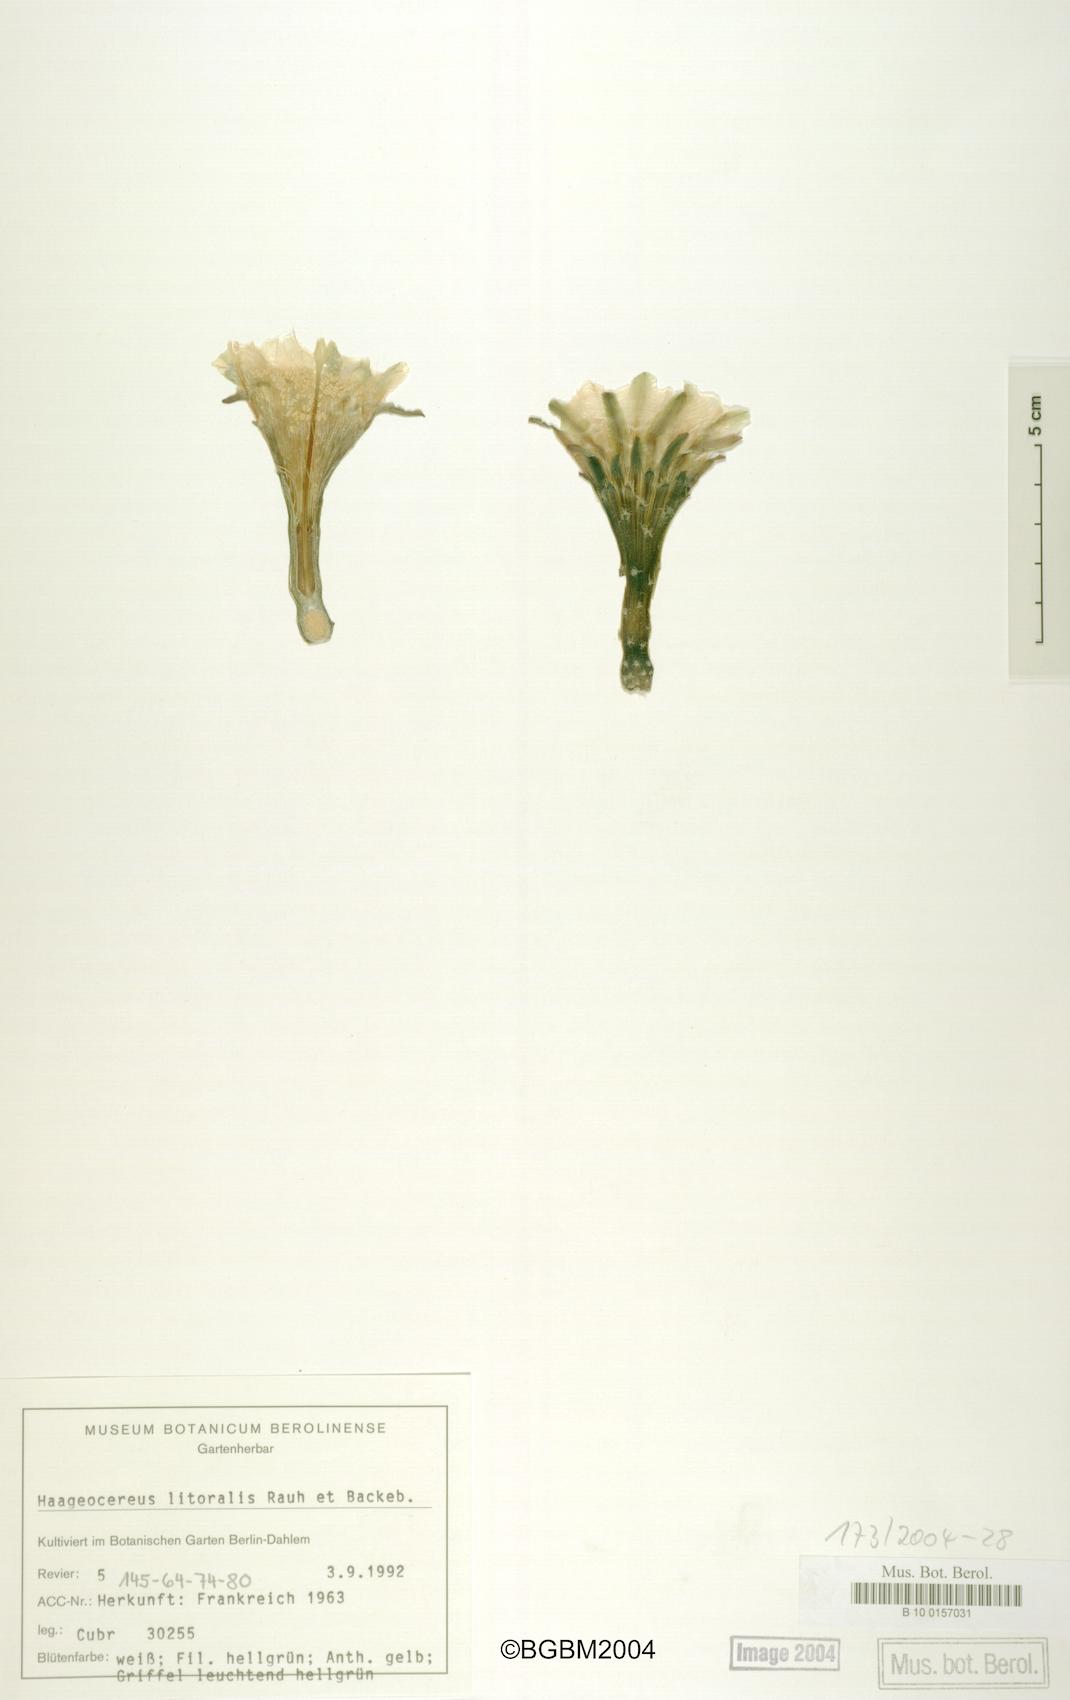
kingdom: Plantae
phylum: Tracheophyta
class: Magnoliopsida
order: Caryophyllales
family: Cactaceae
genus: Haageocereus
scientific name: Haageocereus decumbens
